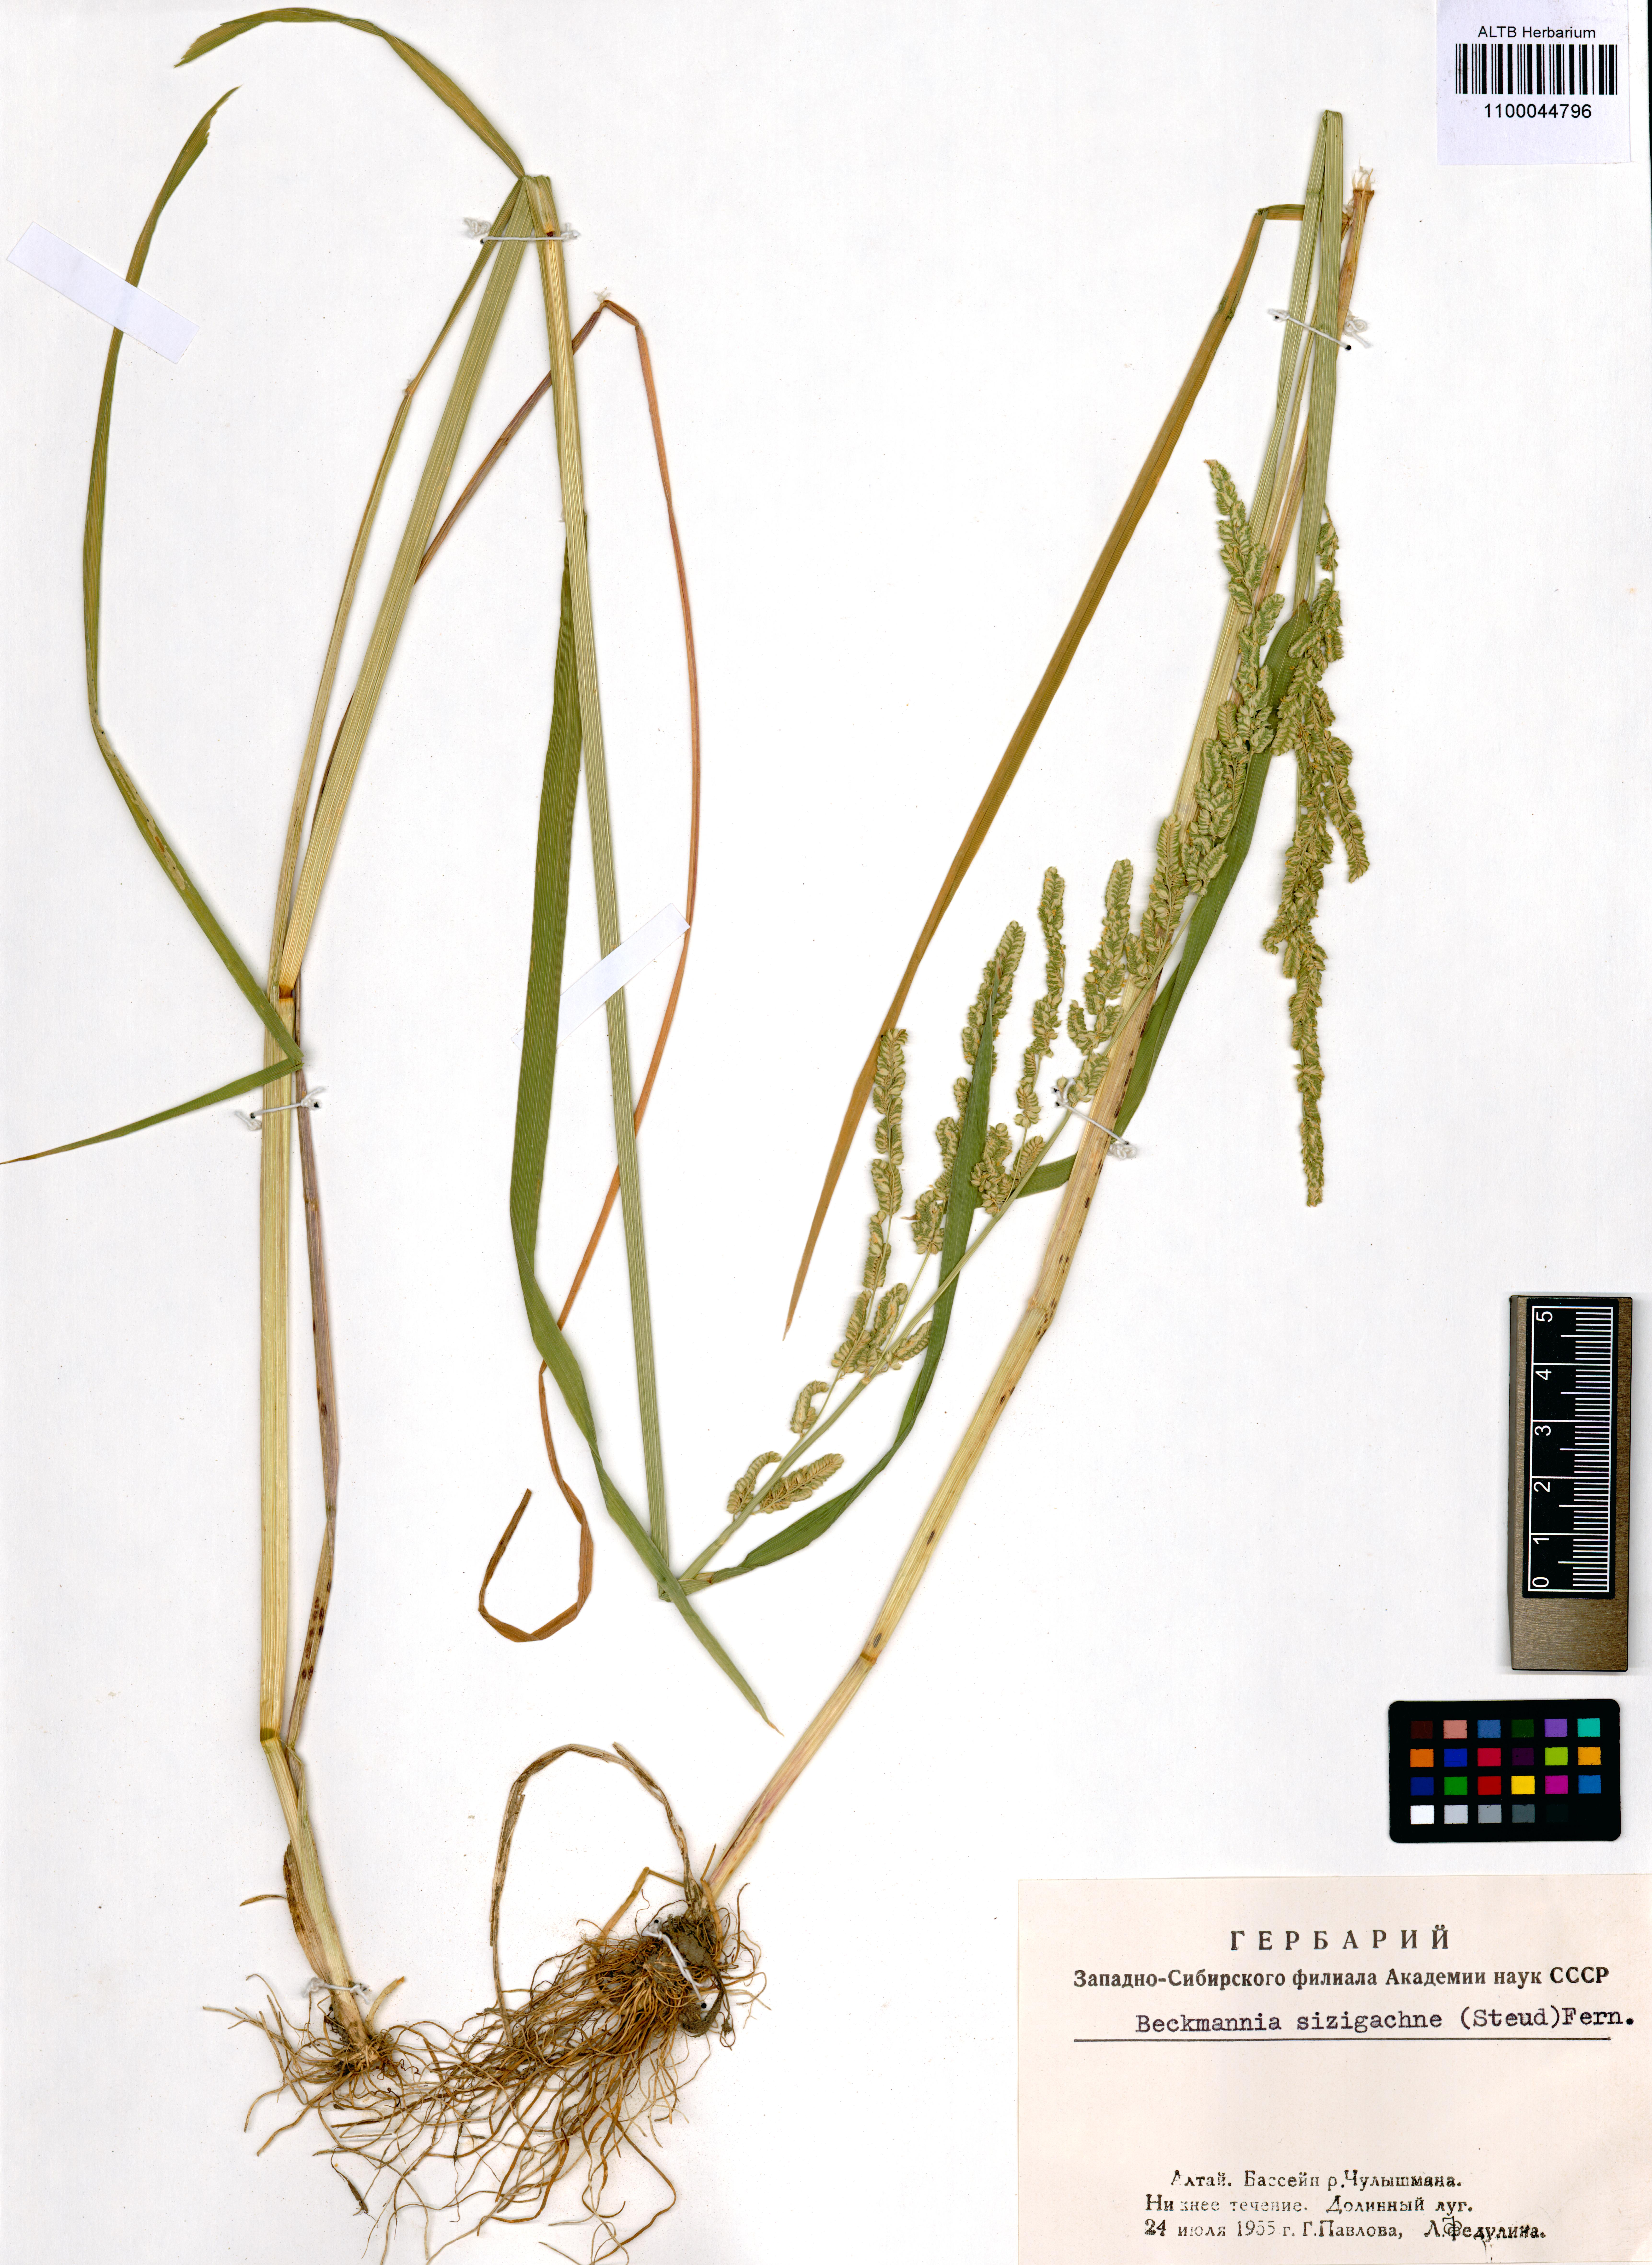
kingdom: Plantae
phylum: Tracheophyta
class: Liliopsida
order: Poales
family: Poaceae
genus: Beckmannia
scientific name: Beckmannia syzigachne
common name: American slough-grass
